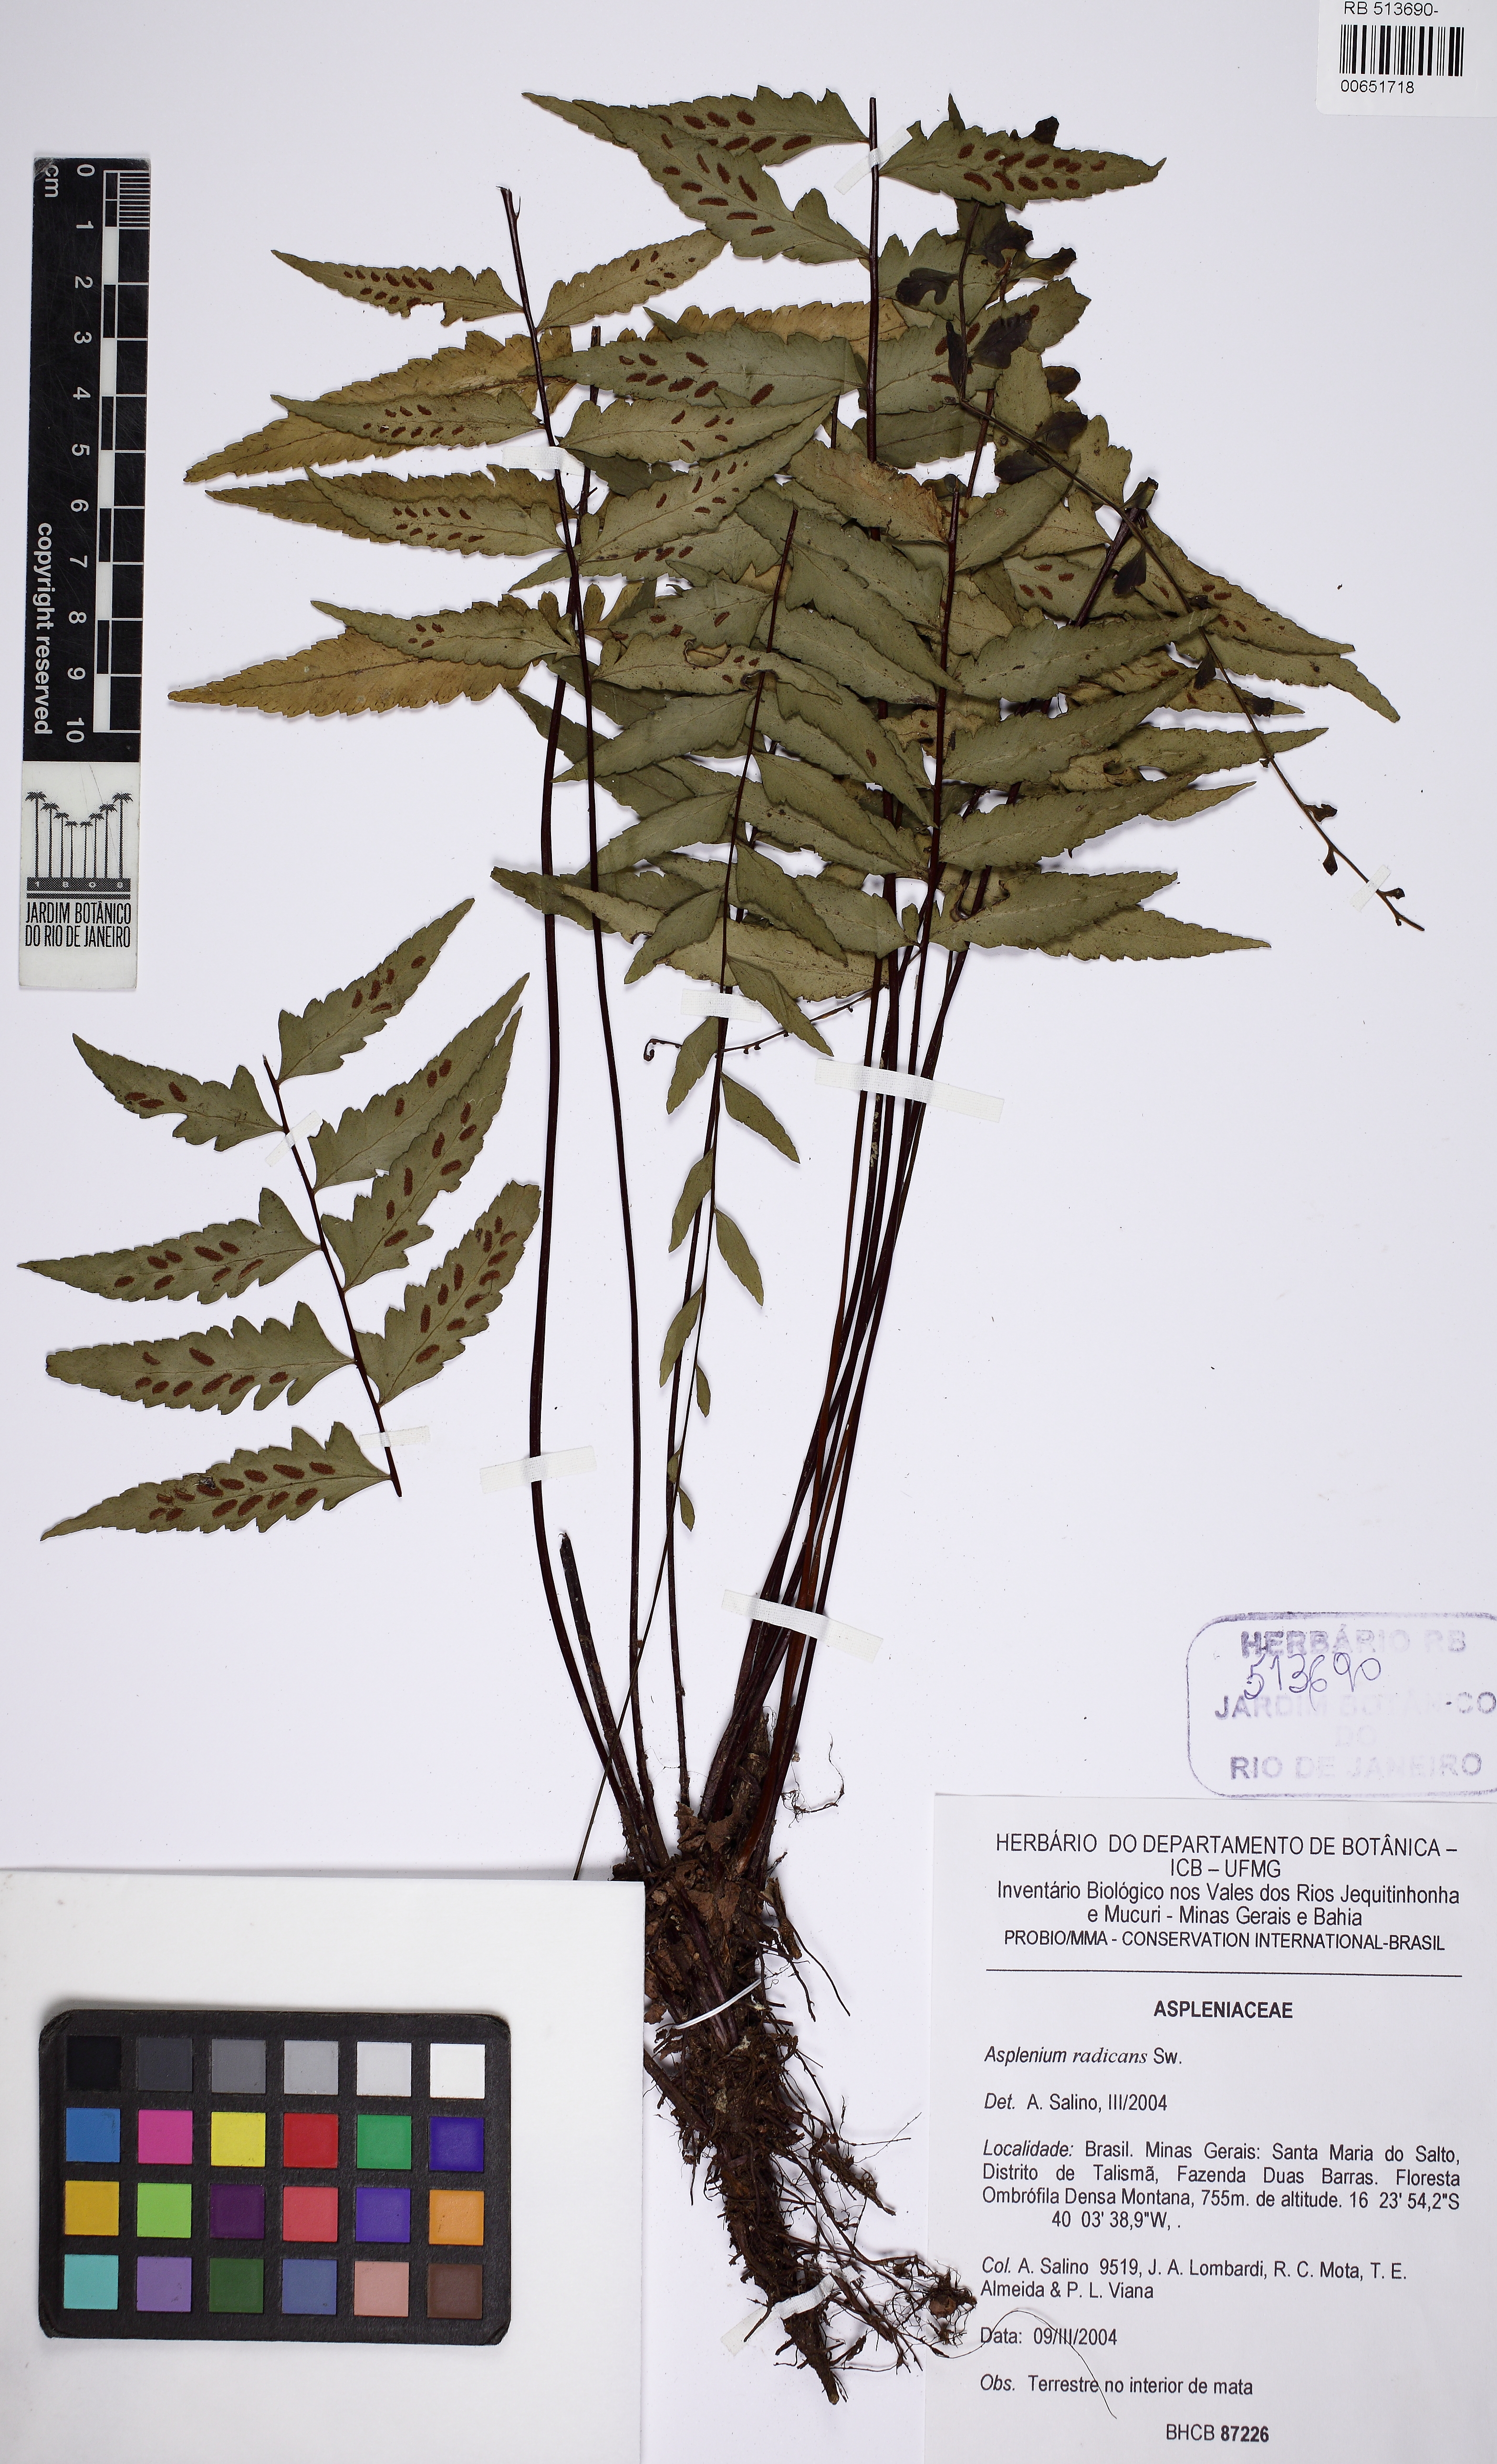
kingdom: Plantae
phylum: Tracheophyta
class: Polypodiopsida
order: Polypodiales
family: Aspleniaceae
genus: Asplenium
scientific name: Asplenium radicans
